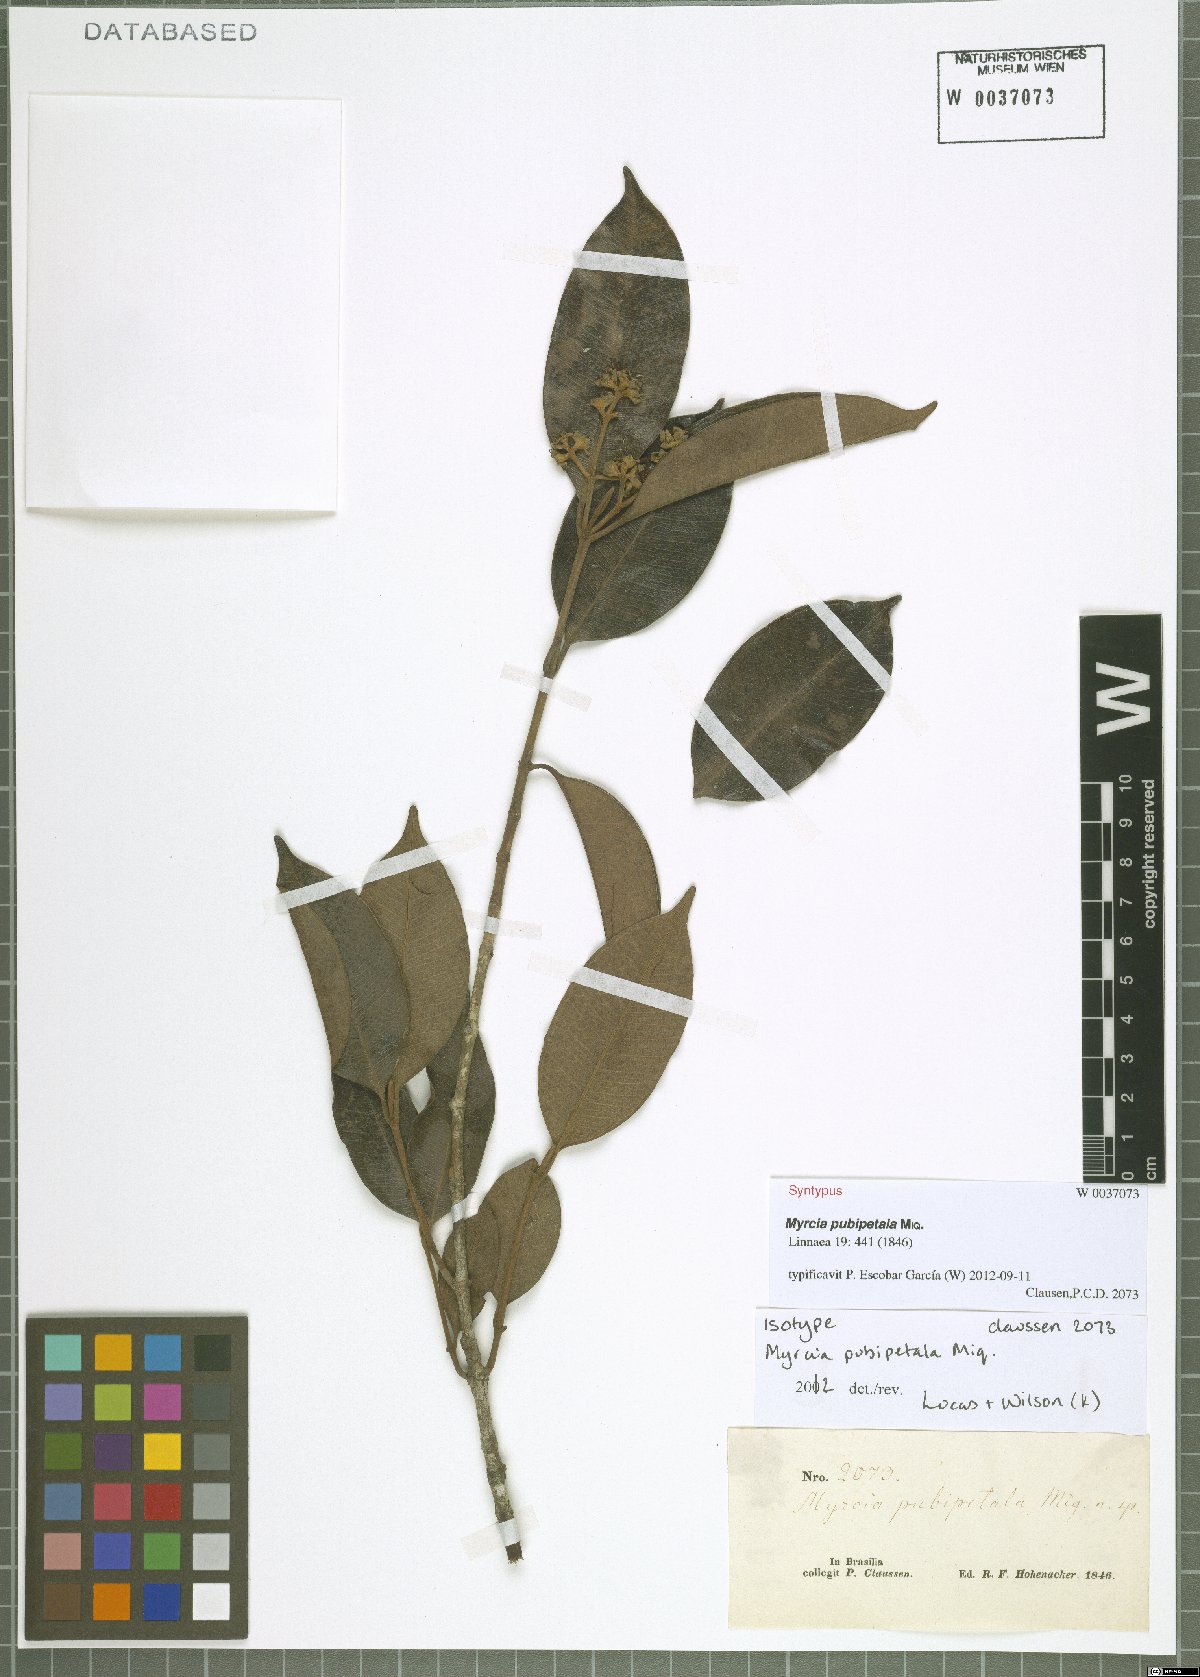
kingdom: Plantae
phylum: Tracheophyta
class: Magnoliopsida
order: Myrtales
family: Myrtaceae
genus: Myrcia
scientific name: Myrcia pubipetala
